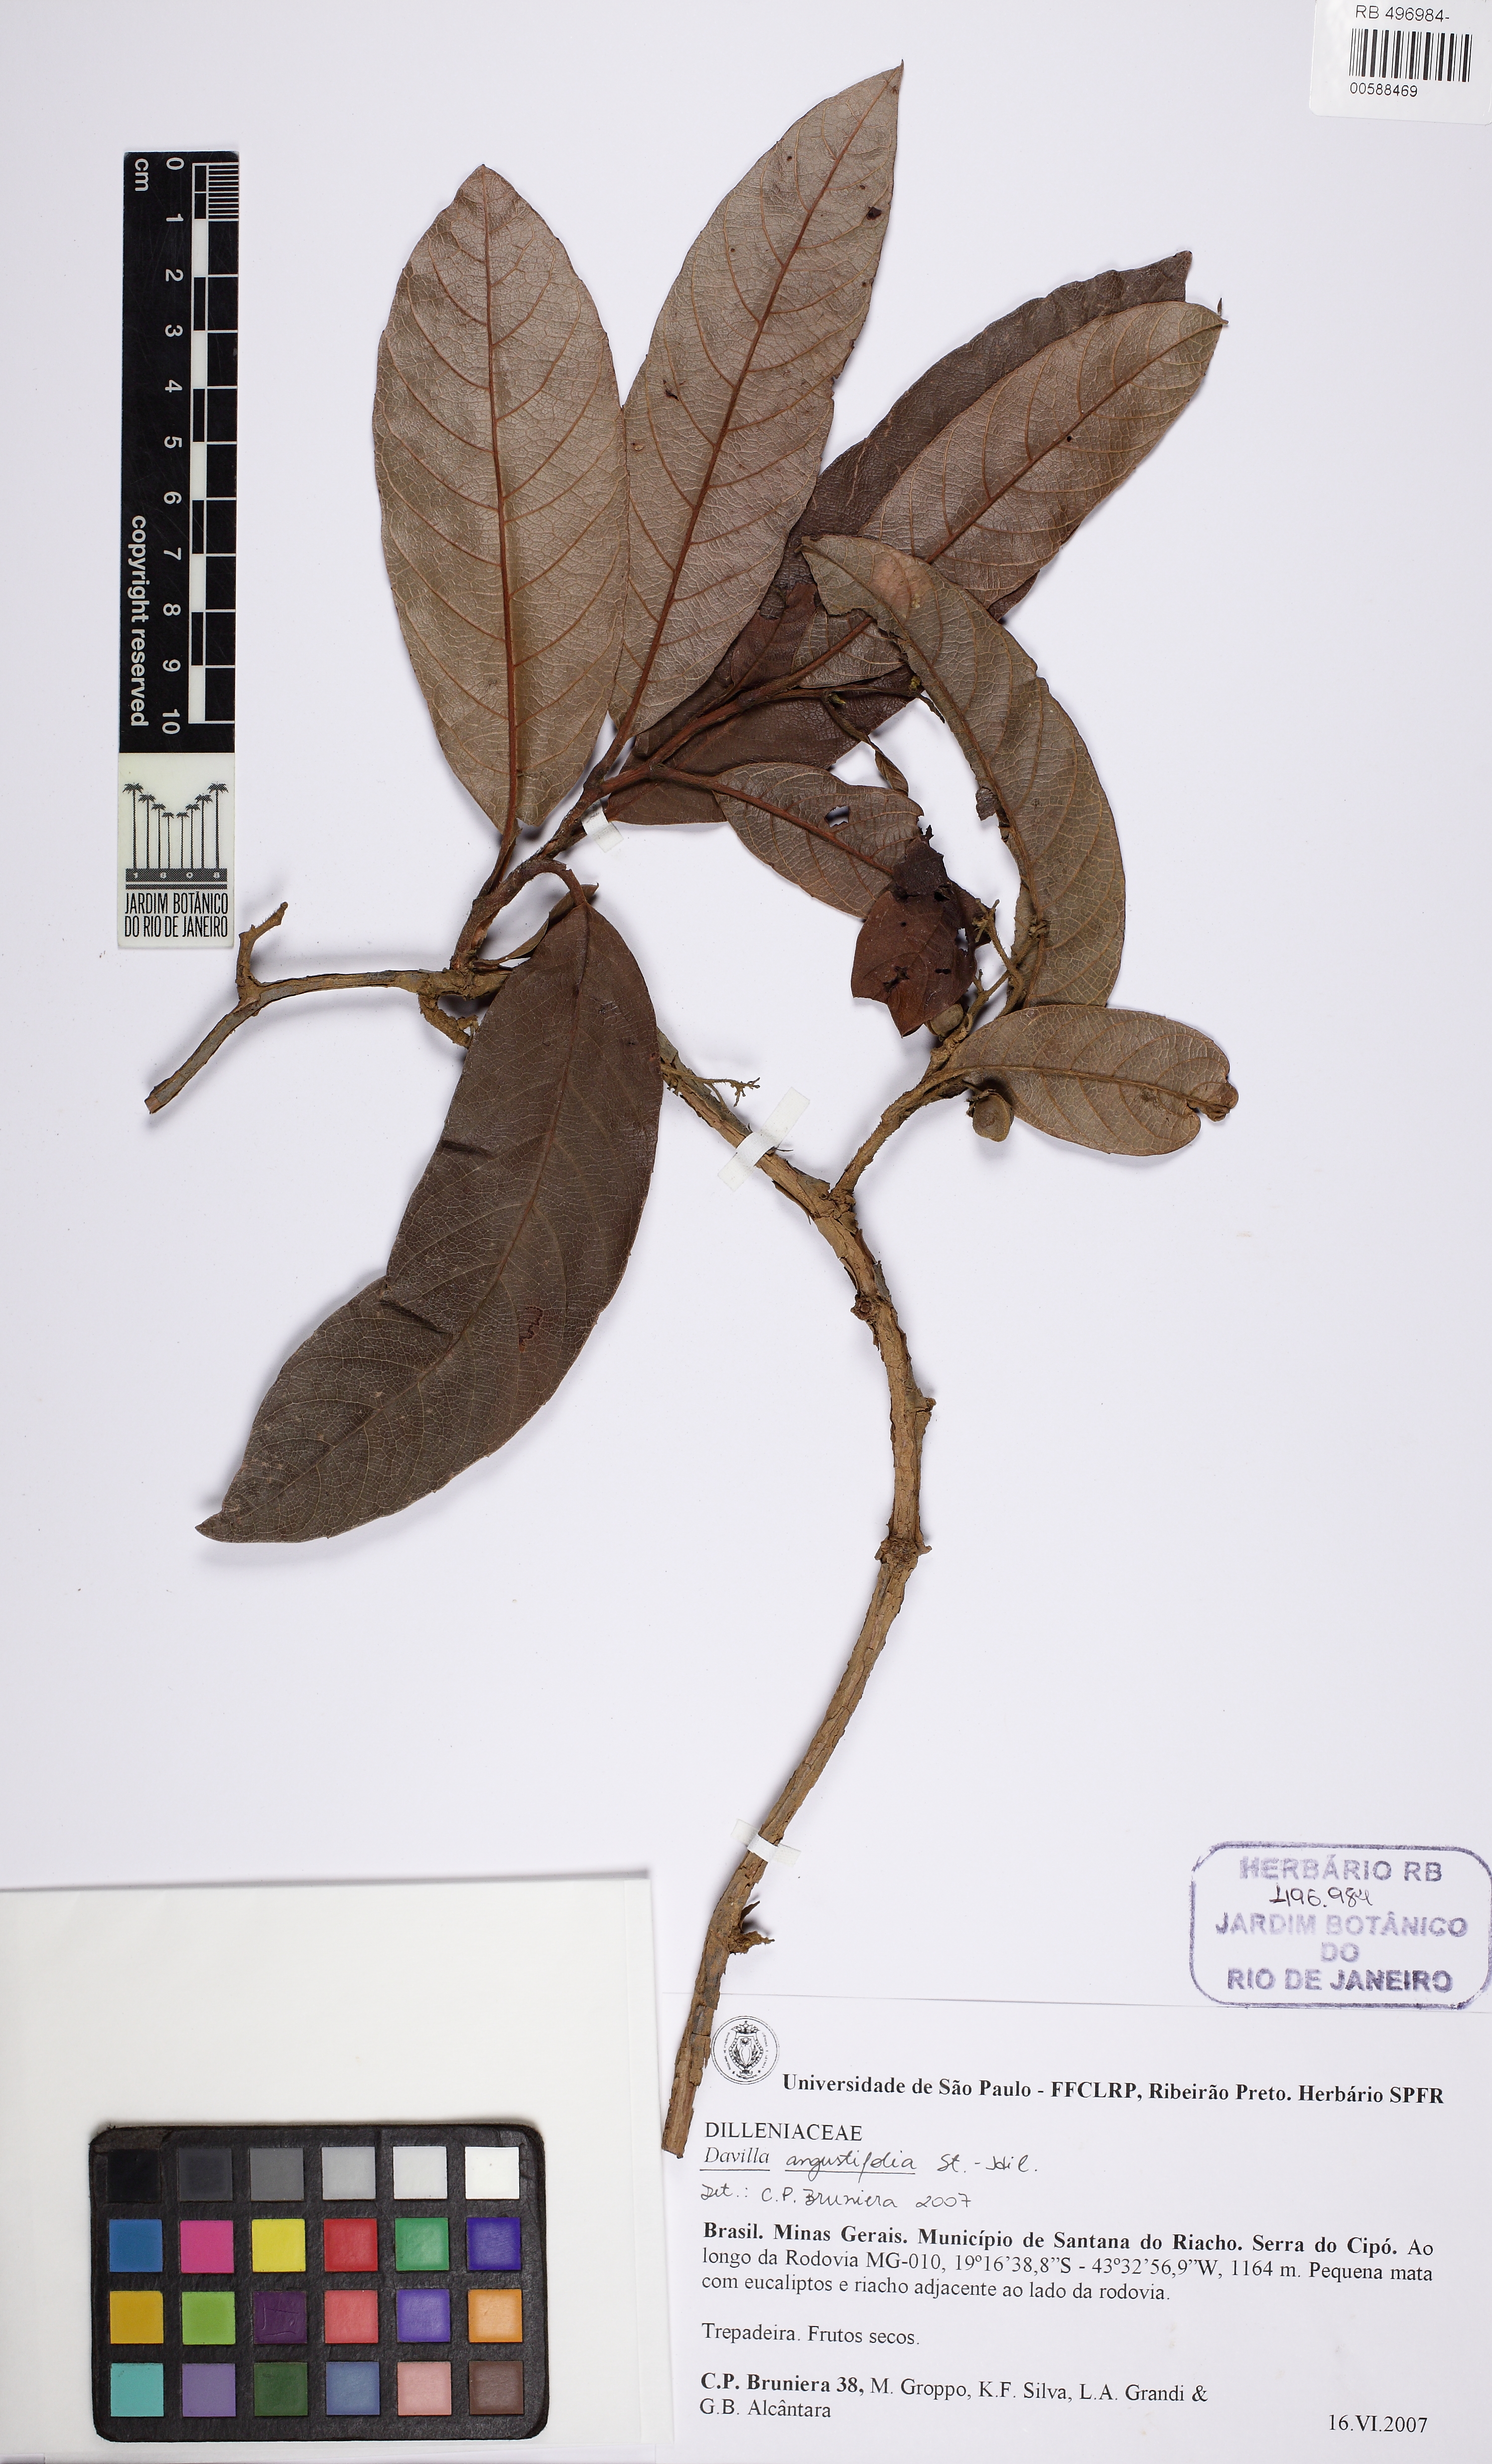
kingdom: Plantae
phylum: Tracheophyta
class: Magnoliopsida
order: Dilleniales
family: Dilleniaceae
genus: Davilla
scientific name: Davilla angustifolia
